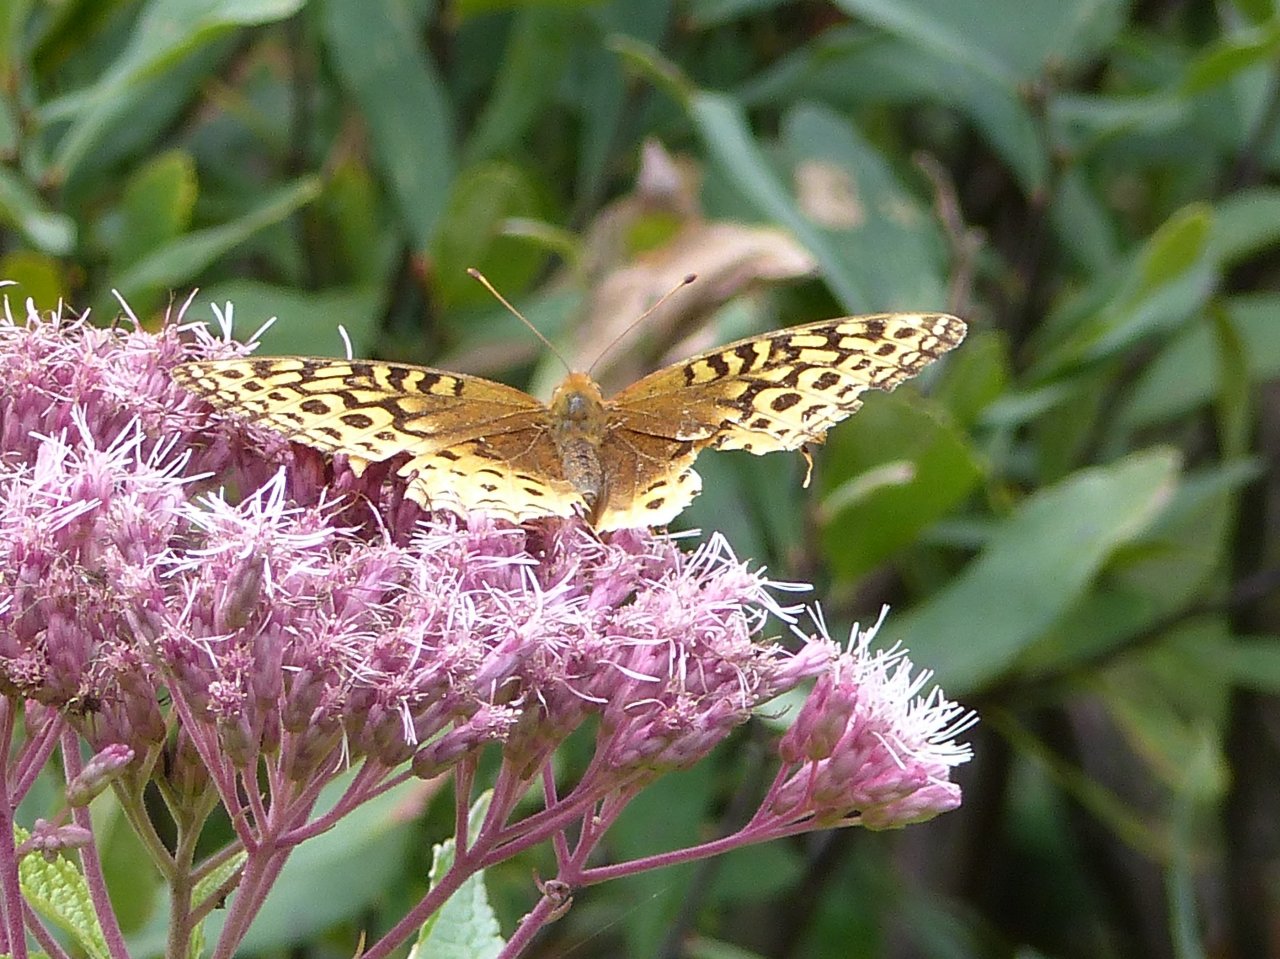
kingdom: Animalia
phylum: Arthropoda
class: Insecta
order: Lepidoptera
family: Nymphalidae
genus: Speyeria
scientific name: Speyeria atlantis
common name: Atlantis Fritillary
